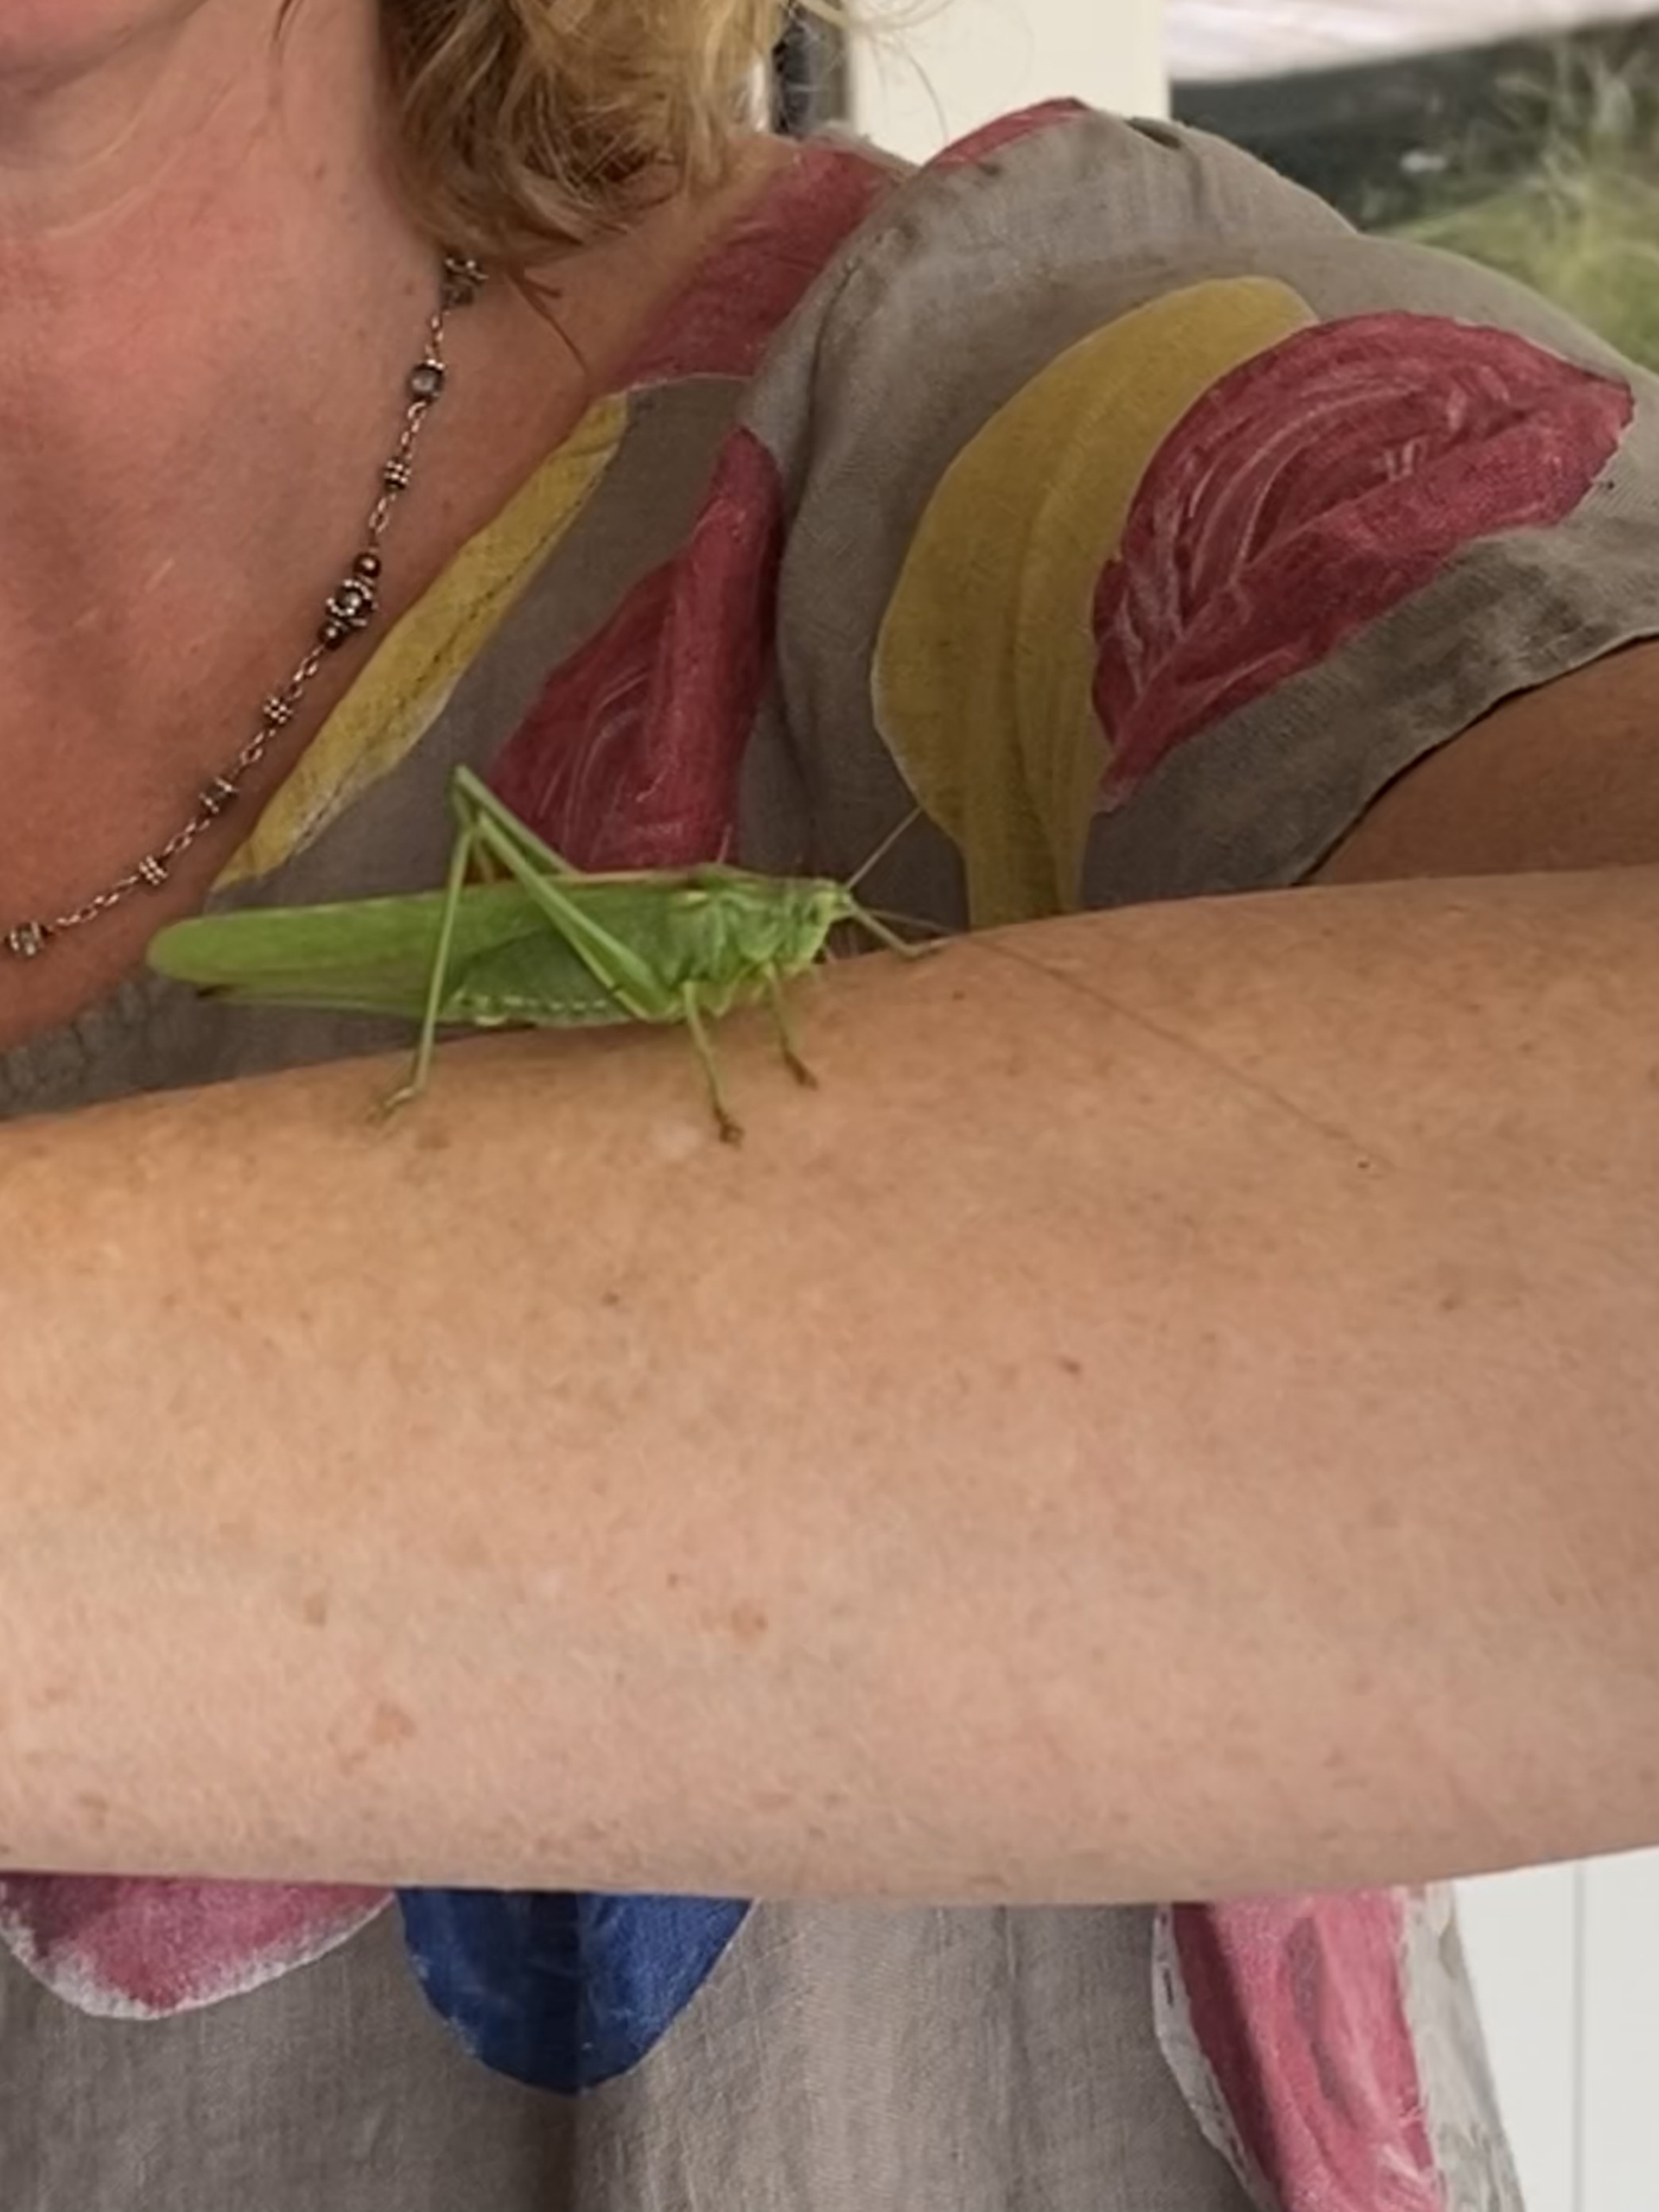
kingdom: Animalia
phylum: Arthropoda
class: Insecta
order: Orthoptera
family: Tettigoniidae
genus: Tettigonia
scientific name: Tettigonia viridissima
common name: Stor grøn løvgræshoppe
